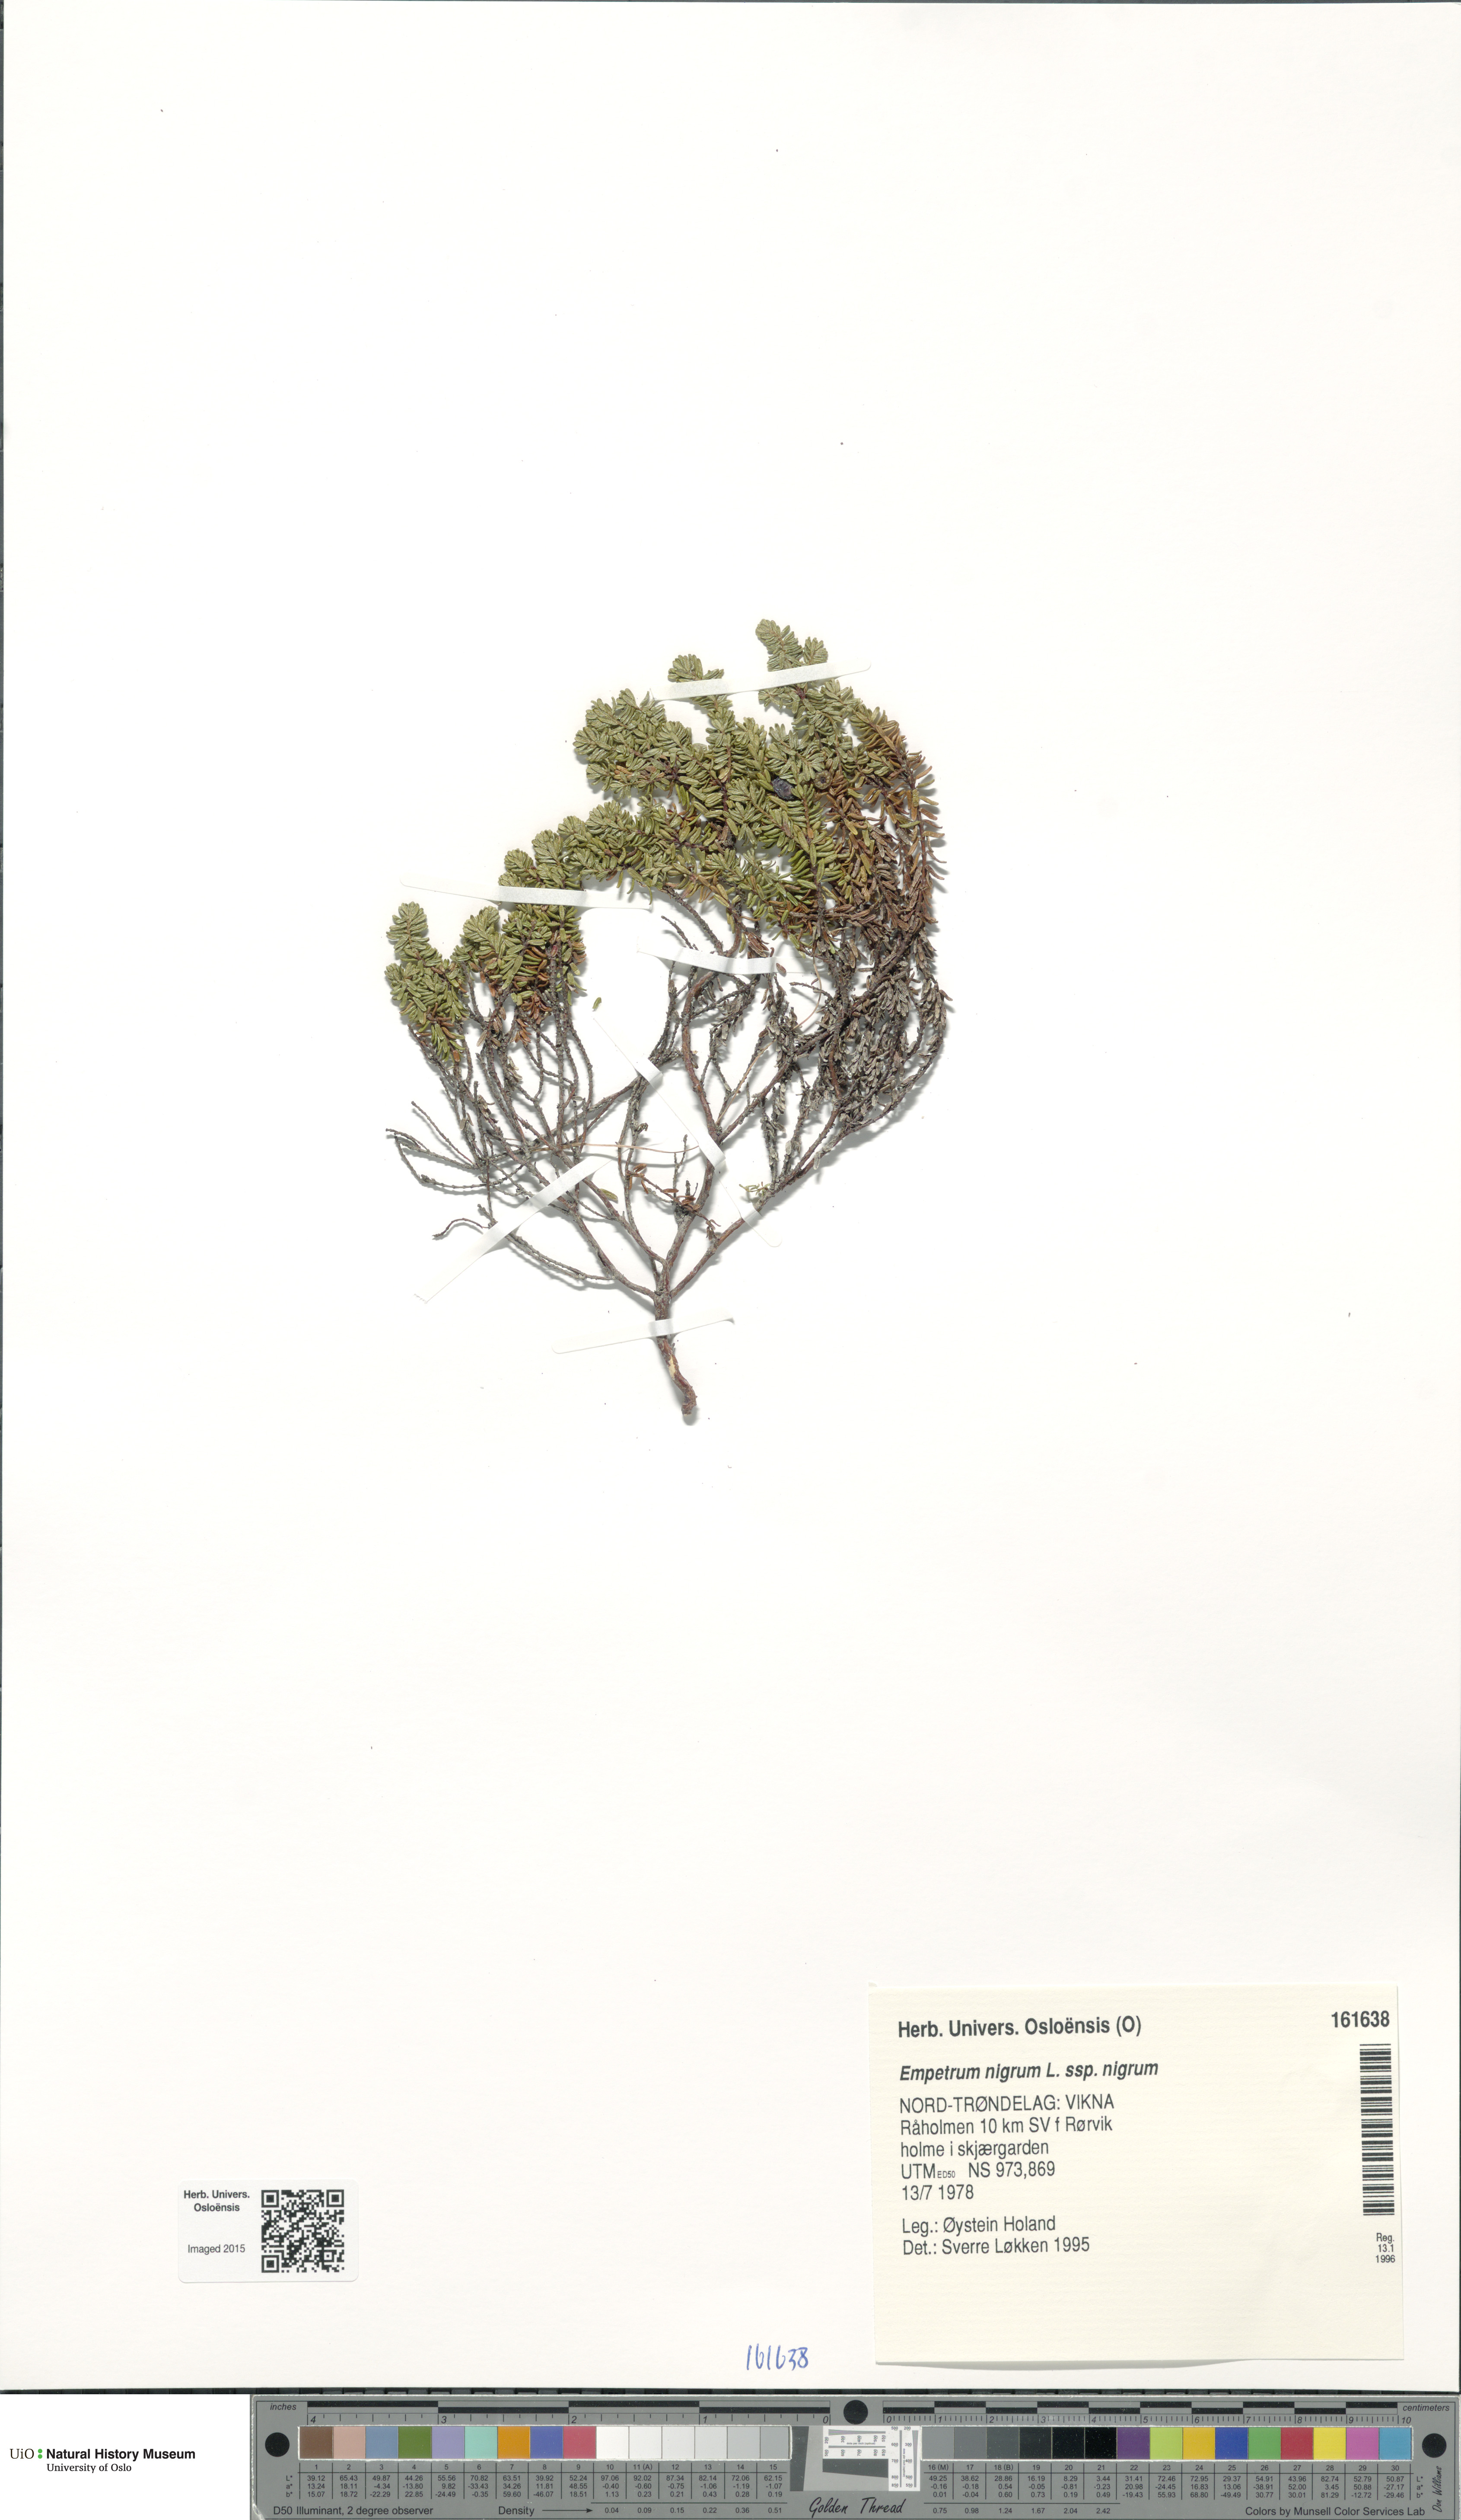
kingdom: Plantae
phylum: Tracheophyta
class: Magnoliopsida
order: Ericales
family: Ericaceae
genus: Empetrum
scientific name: Empetrum nigrum
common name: Black crowberry
